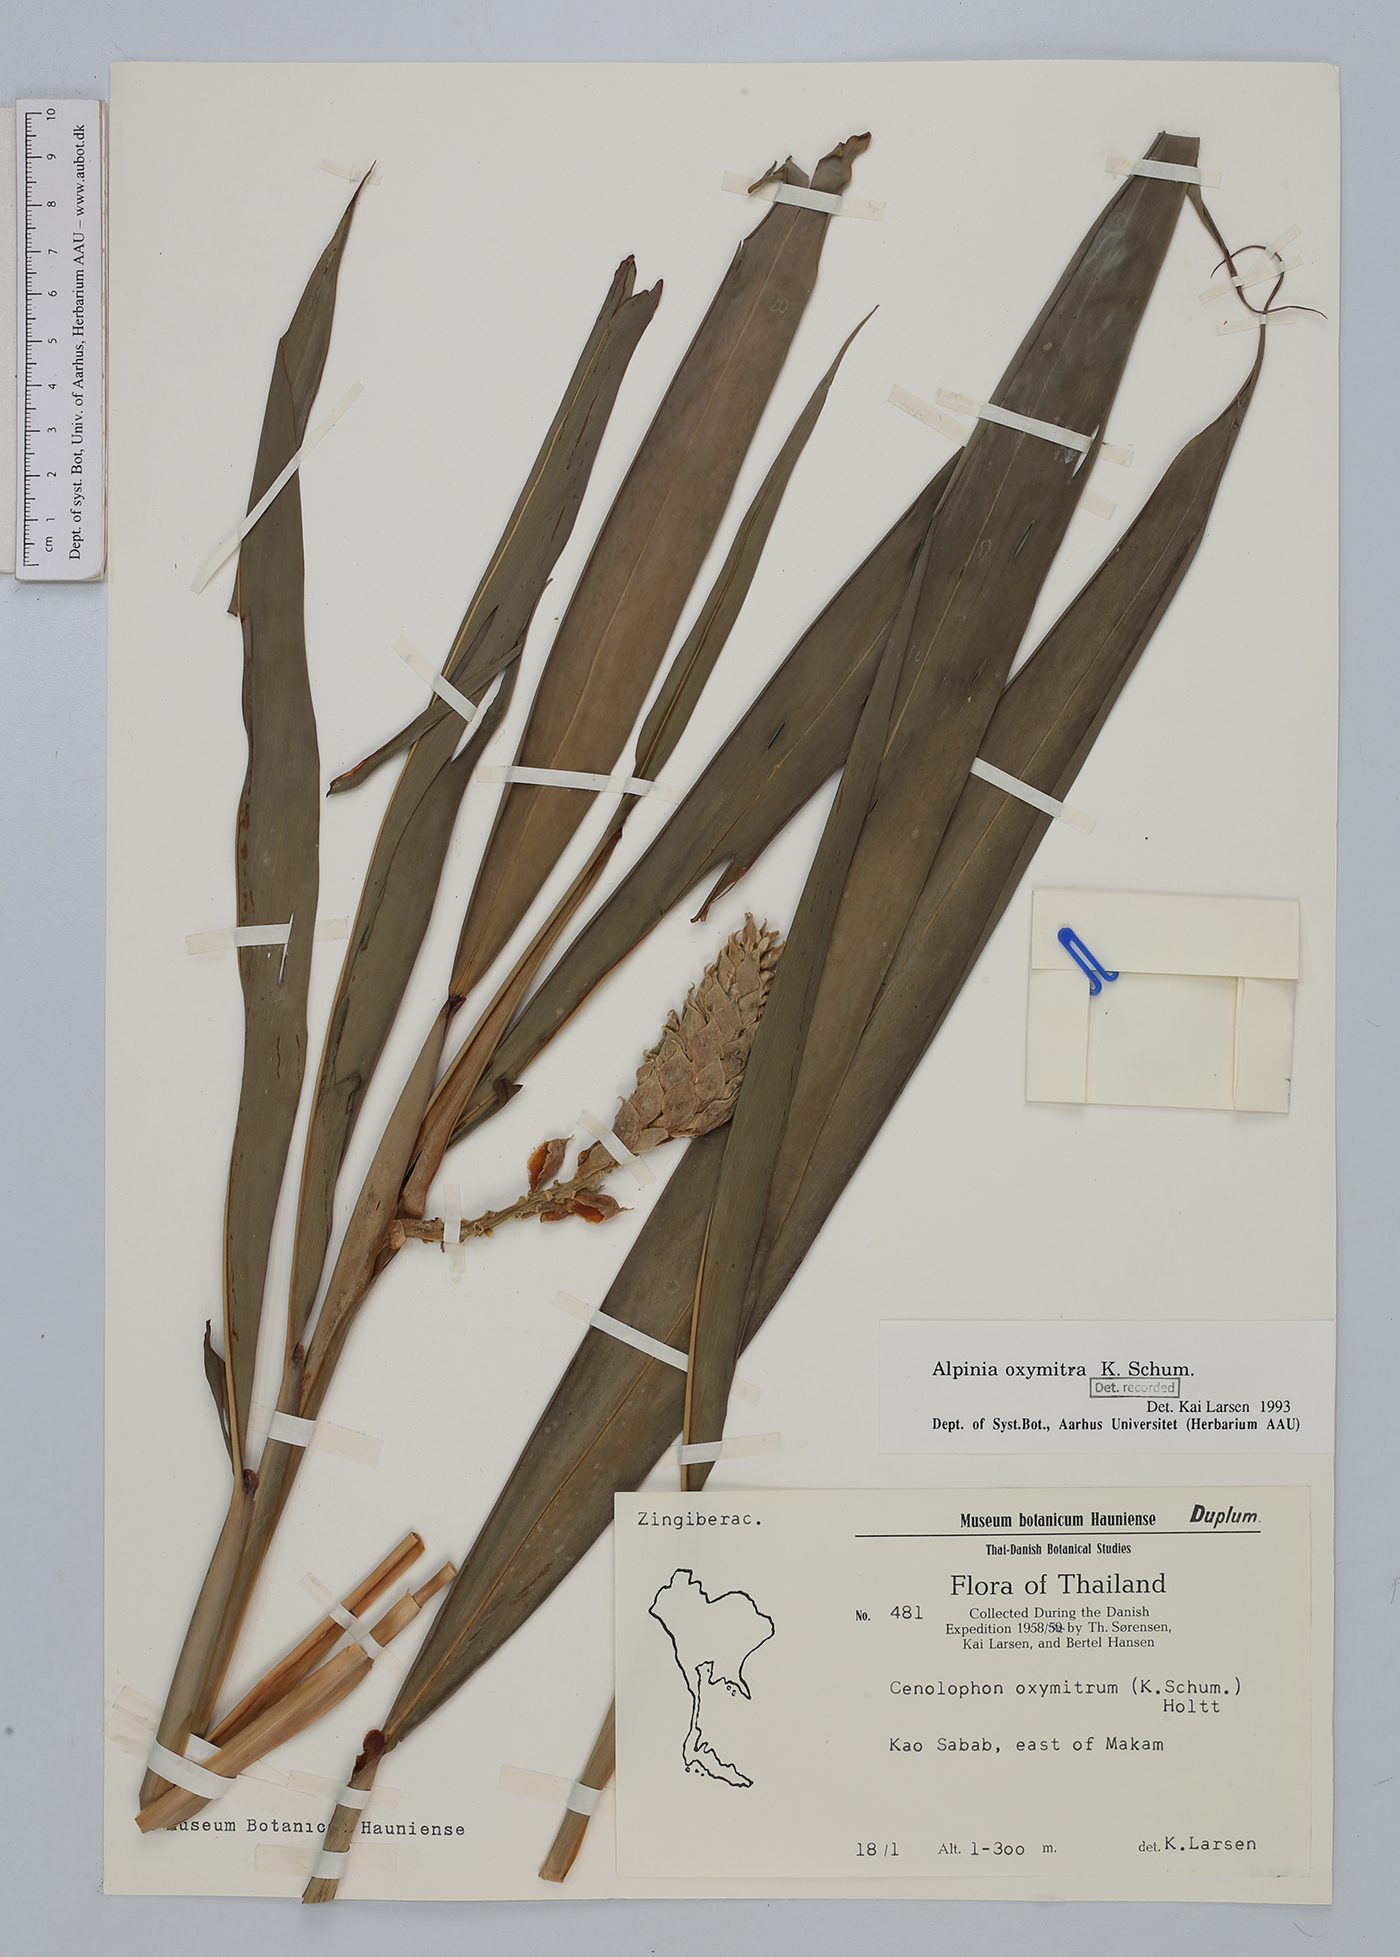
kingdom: Plantae
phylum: Tracheophyta
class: Liliopsida
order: Zingiberales
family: Zingiberaceae
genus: Alpinia
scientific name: Alpinia oxymitra
